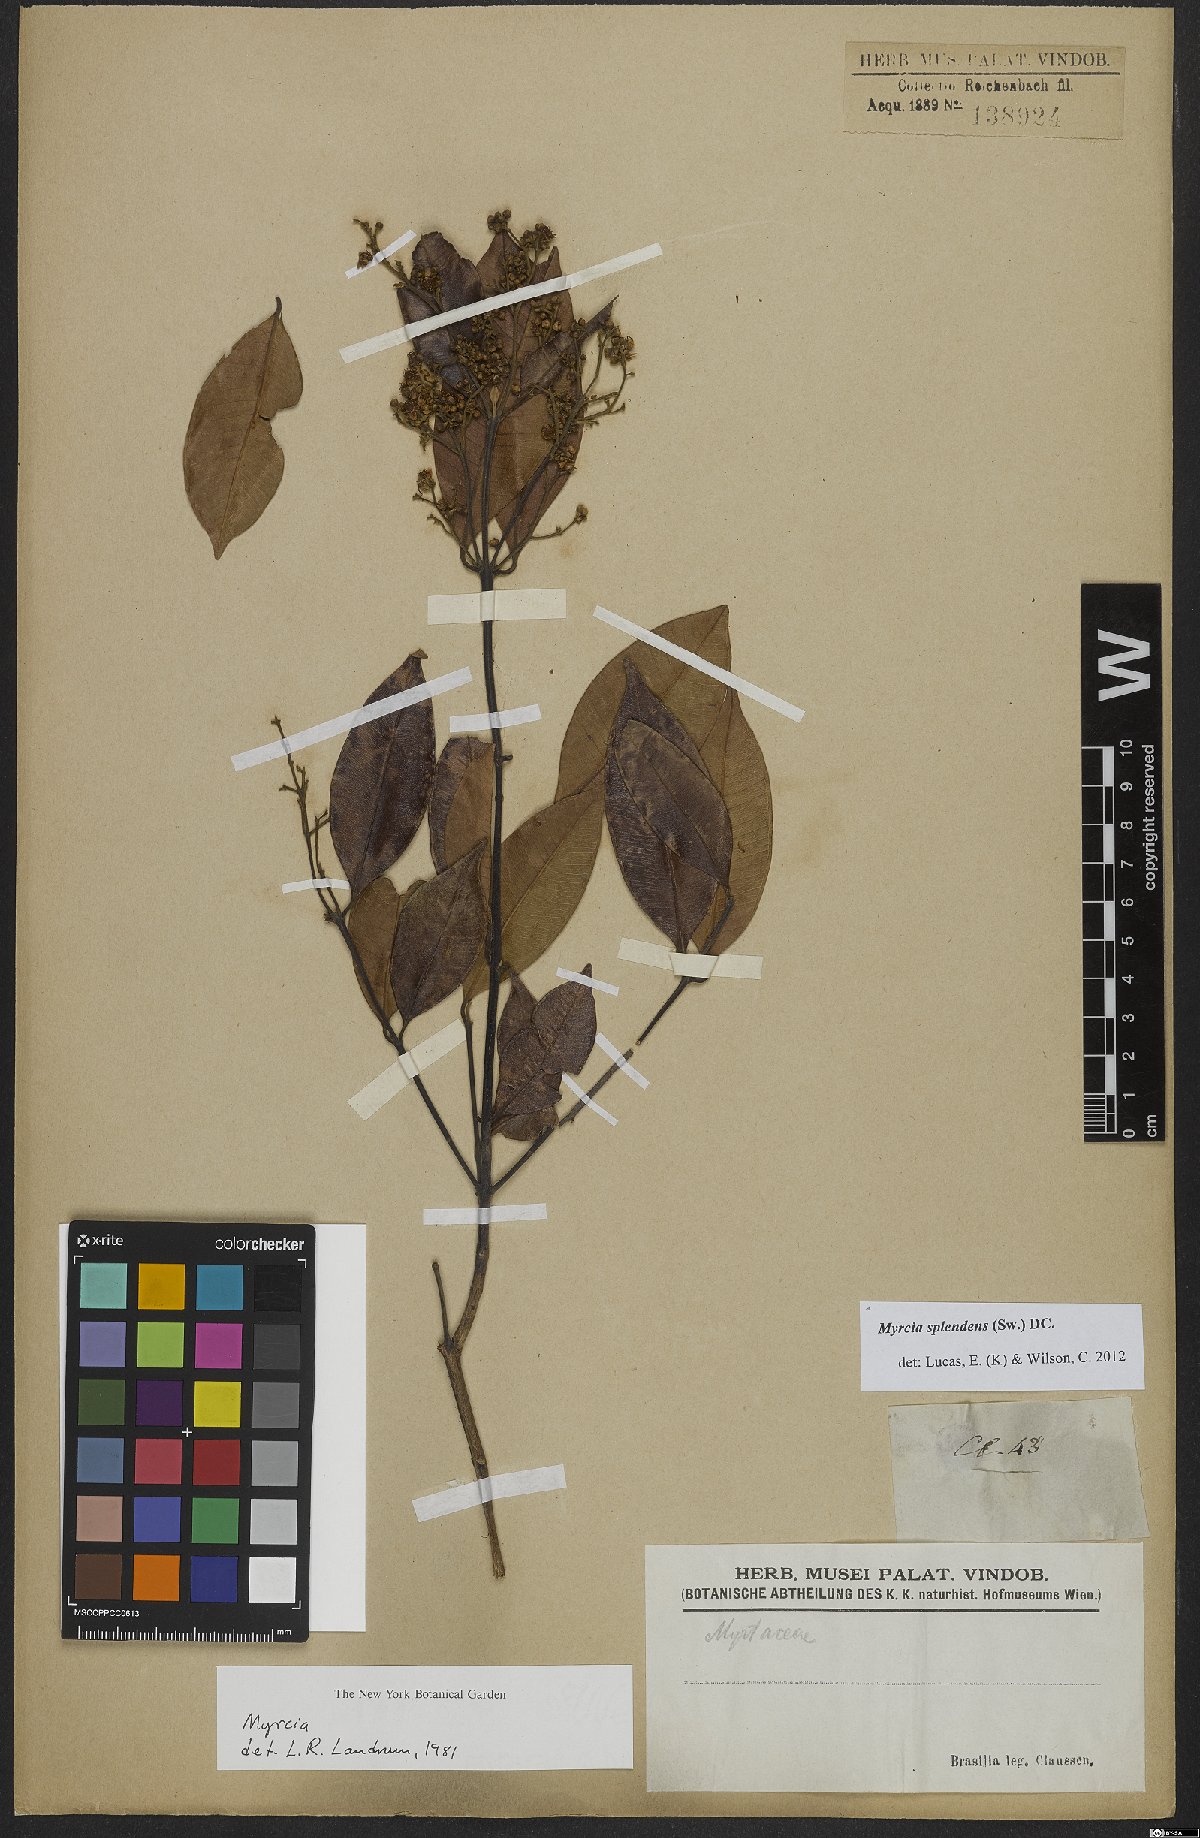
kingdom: Plantae
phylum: Tracheophyta
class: Magnoliopsida
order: Myrtales
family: Myrtaceae
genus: Myrcia
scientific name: Myrcia splendens
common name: Surinam cherry
